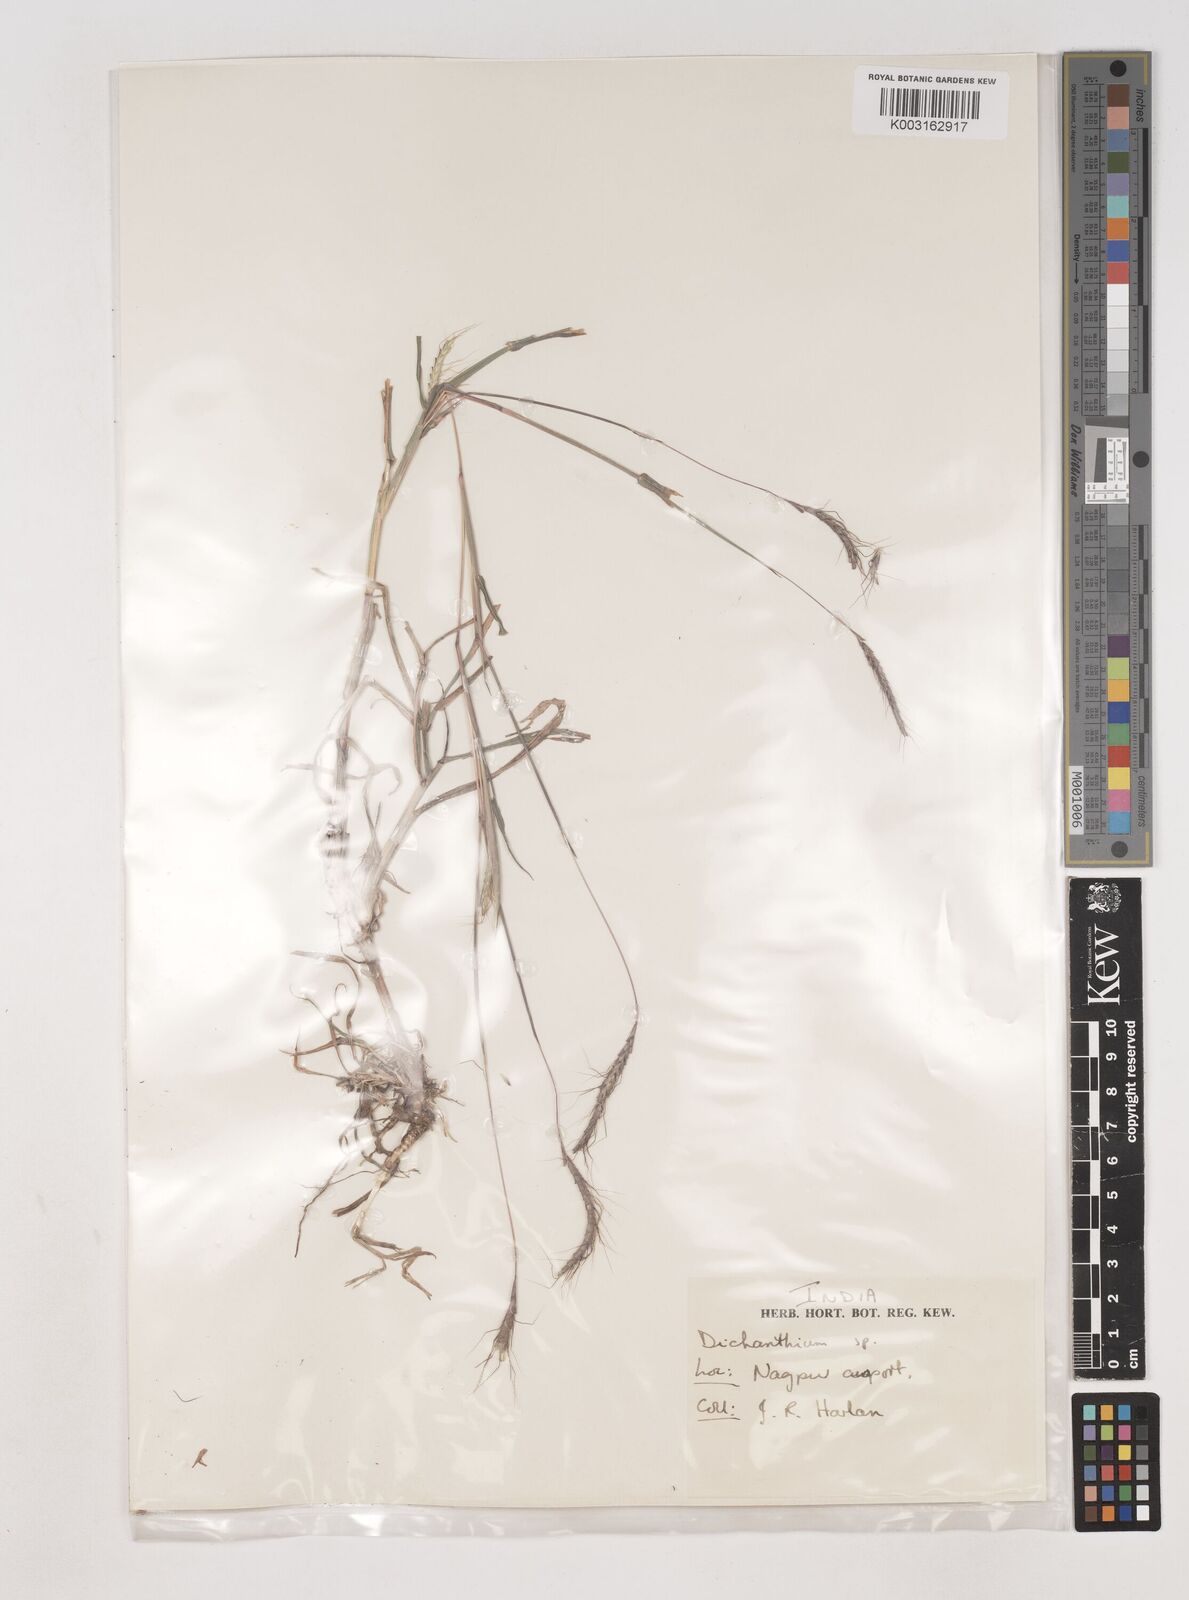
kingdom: Plantae
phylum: Tracheophyta
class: Liliopsida
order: Poales
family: Poaceae
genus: Dichanthium
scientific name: Dichanthium aristatum
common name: Angleton bluestem
